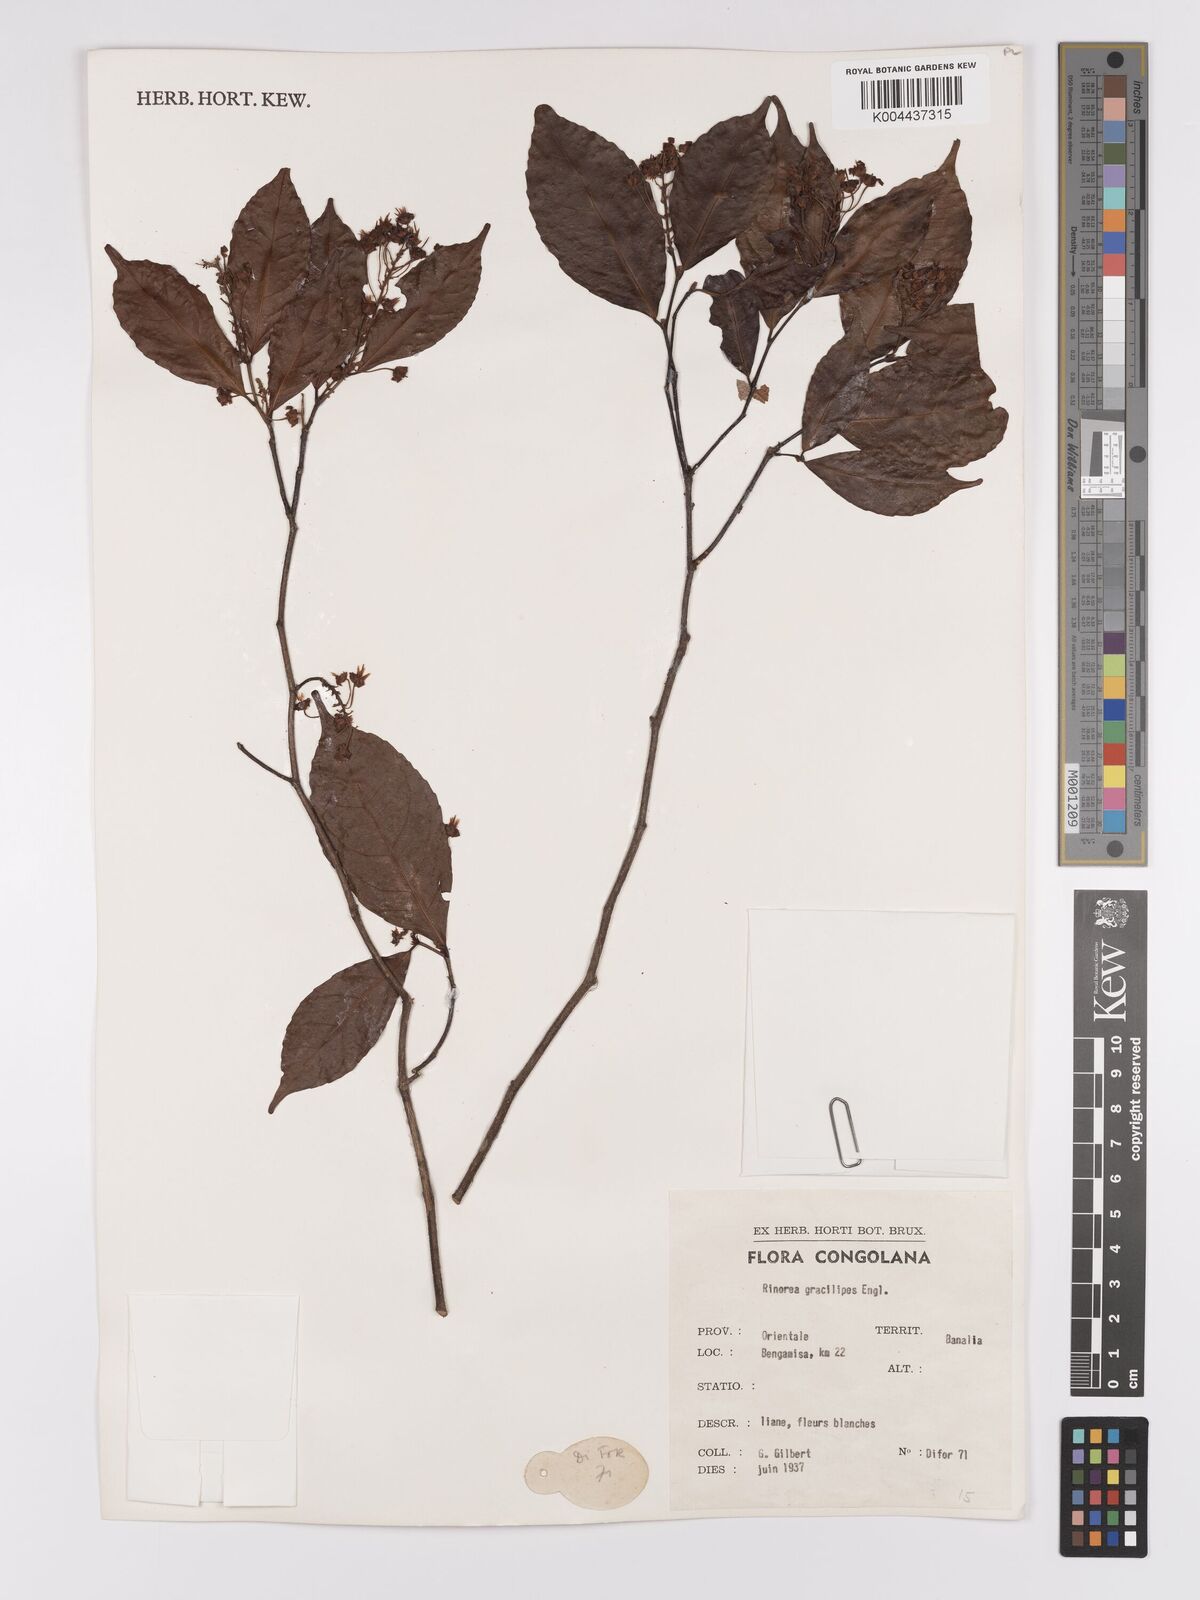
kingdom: Plantae
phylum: Tracheophyta
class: Magnoliopsida
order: Malpighiales
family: Violaceae
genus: Rinorea
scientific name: Rinorea angustifolia
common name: White violet-bush
